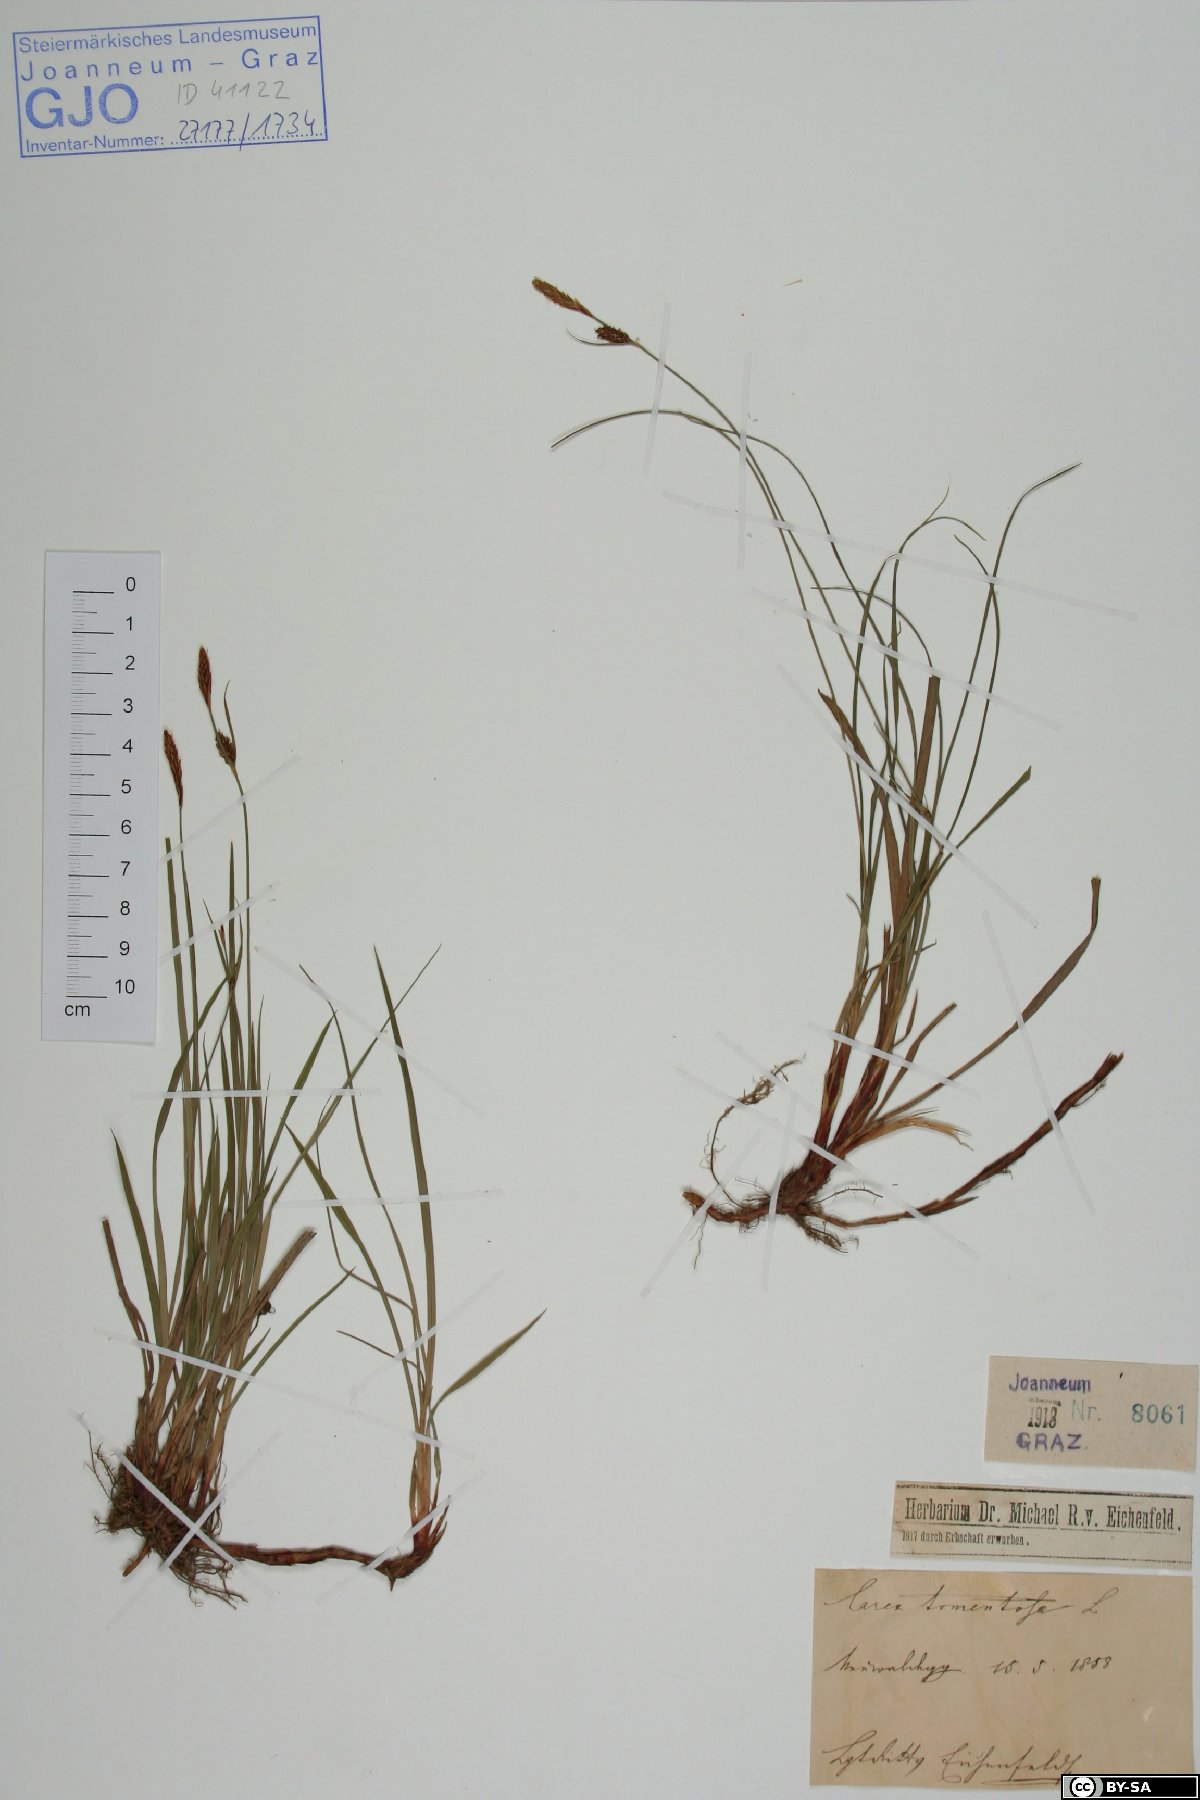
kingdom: Plantae
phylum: Tracheophyta
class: Liliopsida
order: Poales
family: Cyperaceae
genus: Carex
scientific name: Carex tomentosa
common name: Downy-fruited sedge
